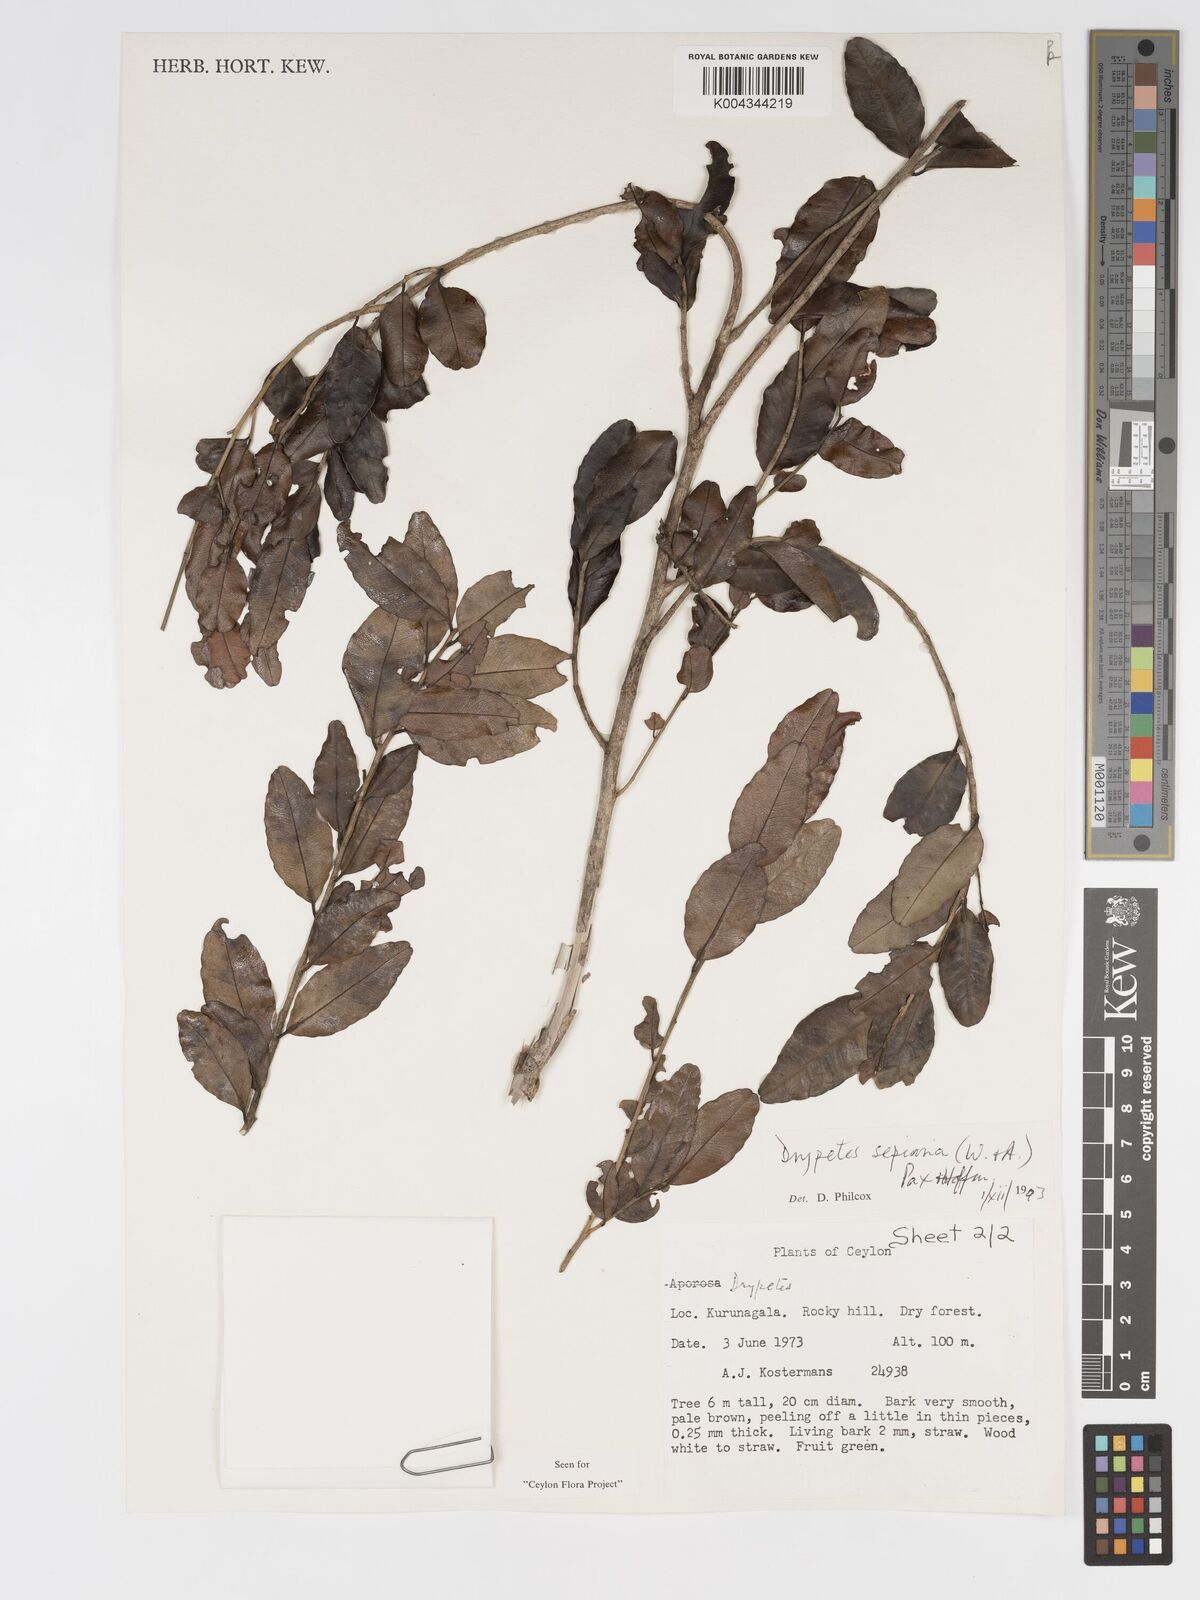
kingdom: Plantae
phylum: Tracheophyta
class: Magnoliopsida
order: Malpighiales
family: Putranjivaceae
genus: Drypetes
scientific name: Drypetes sepiaria
